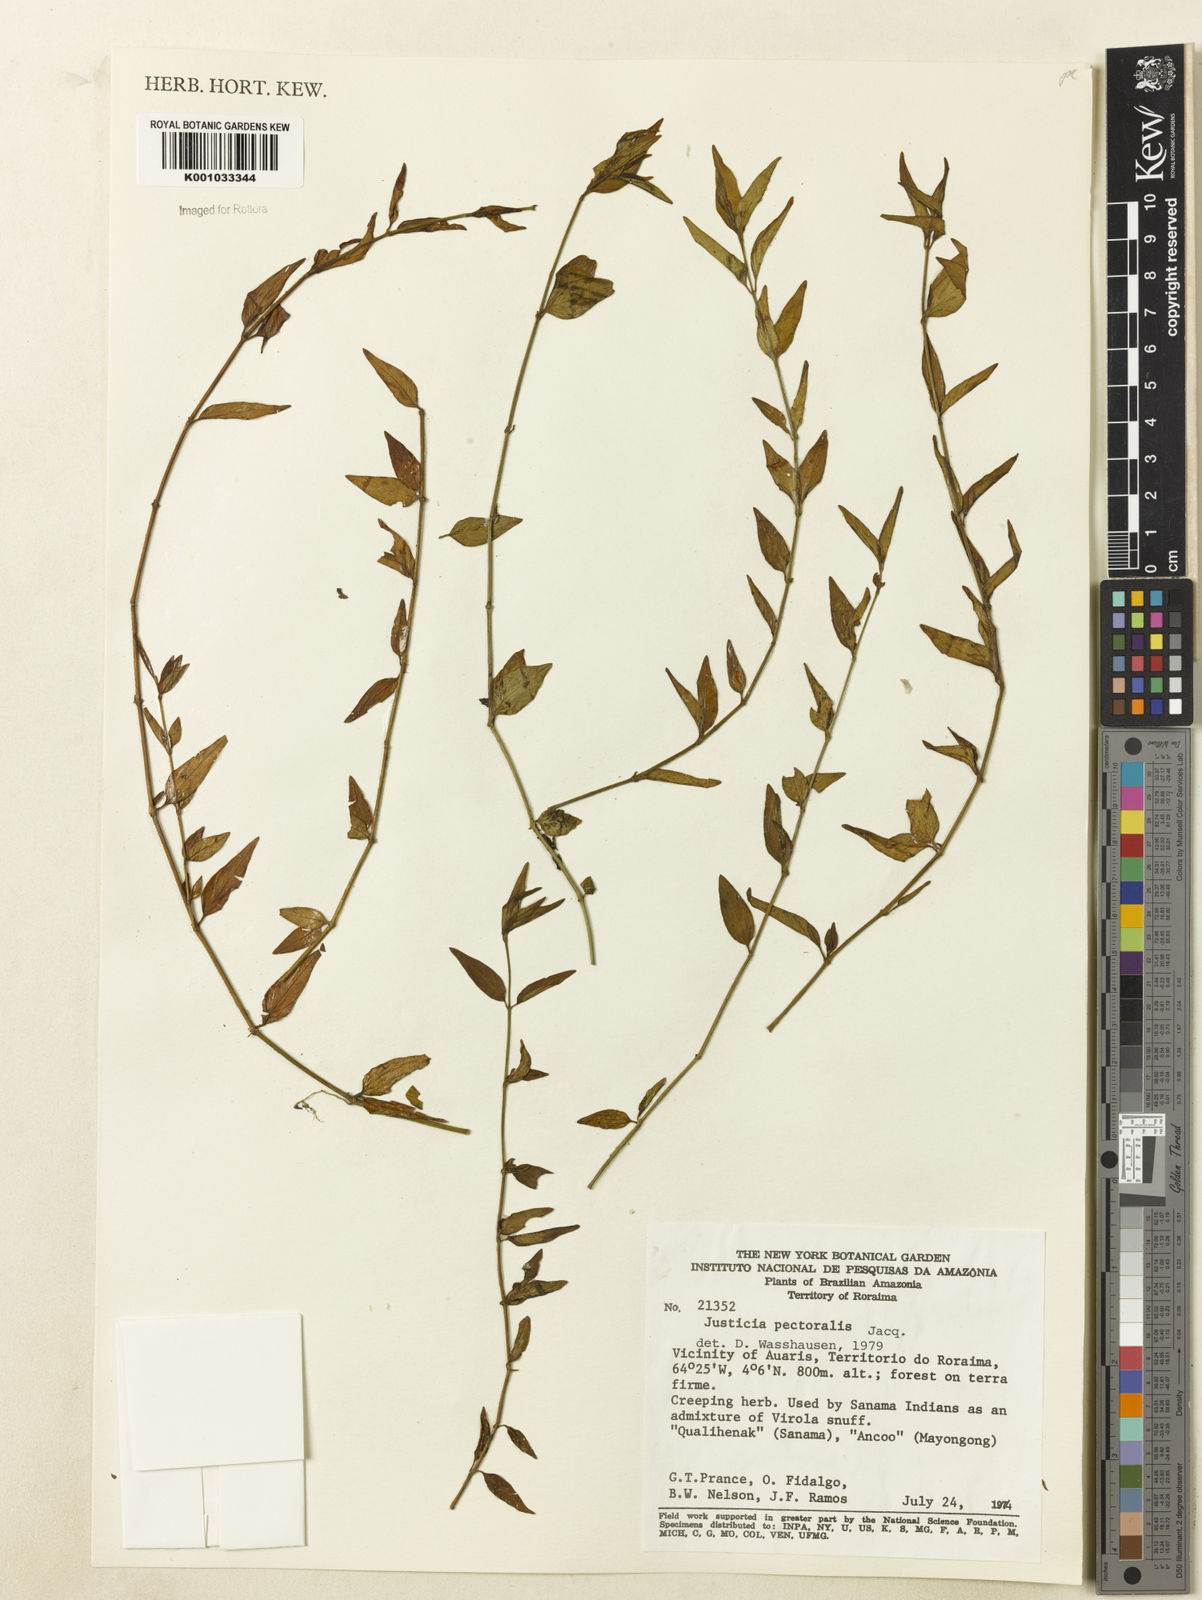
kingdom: Plantae
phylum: Tracheophyta
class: Magnoliopsida
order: Lamiales
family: Acanthaceae
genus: Dianthera
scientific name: Dianthera pectoralis
